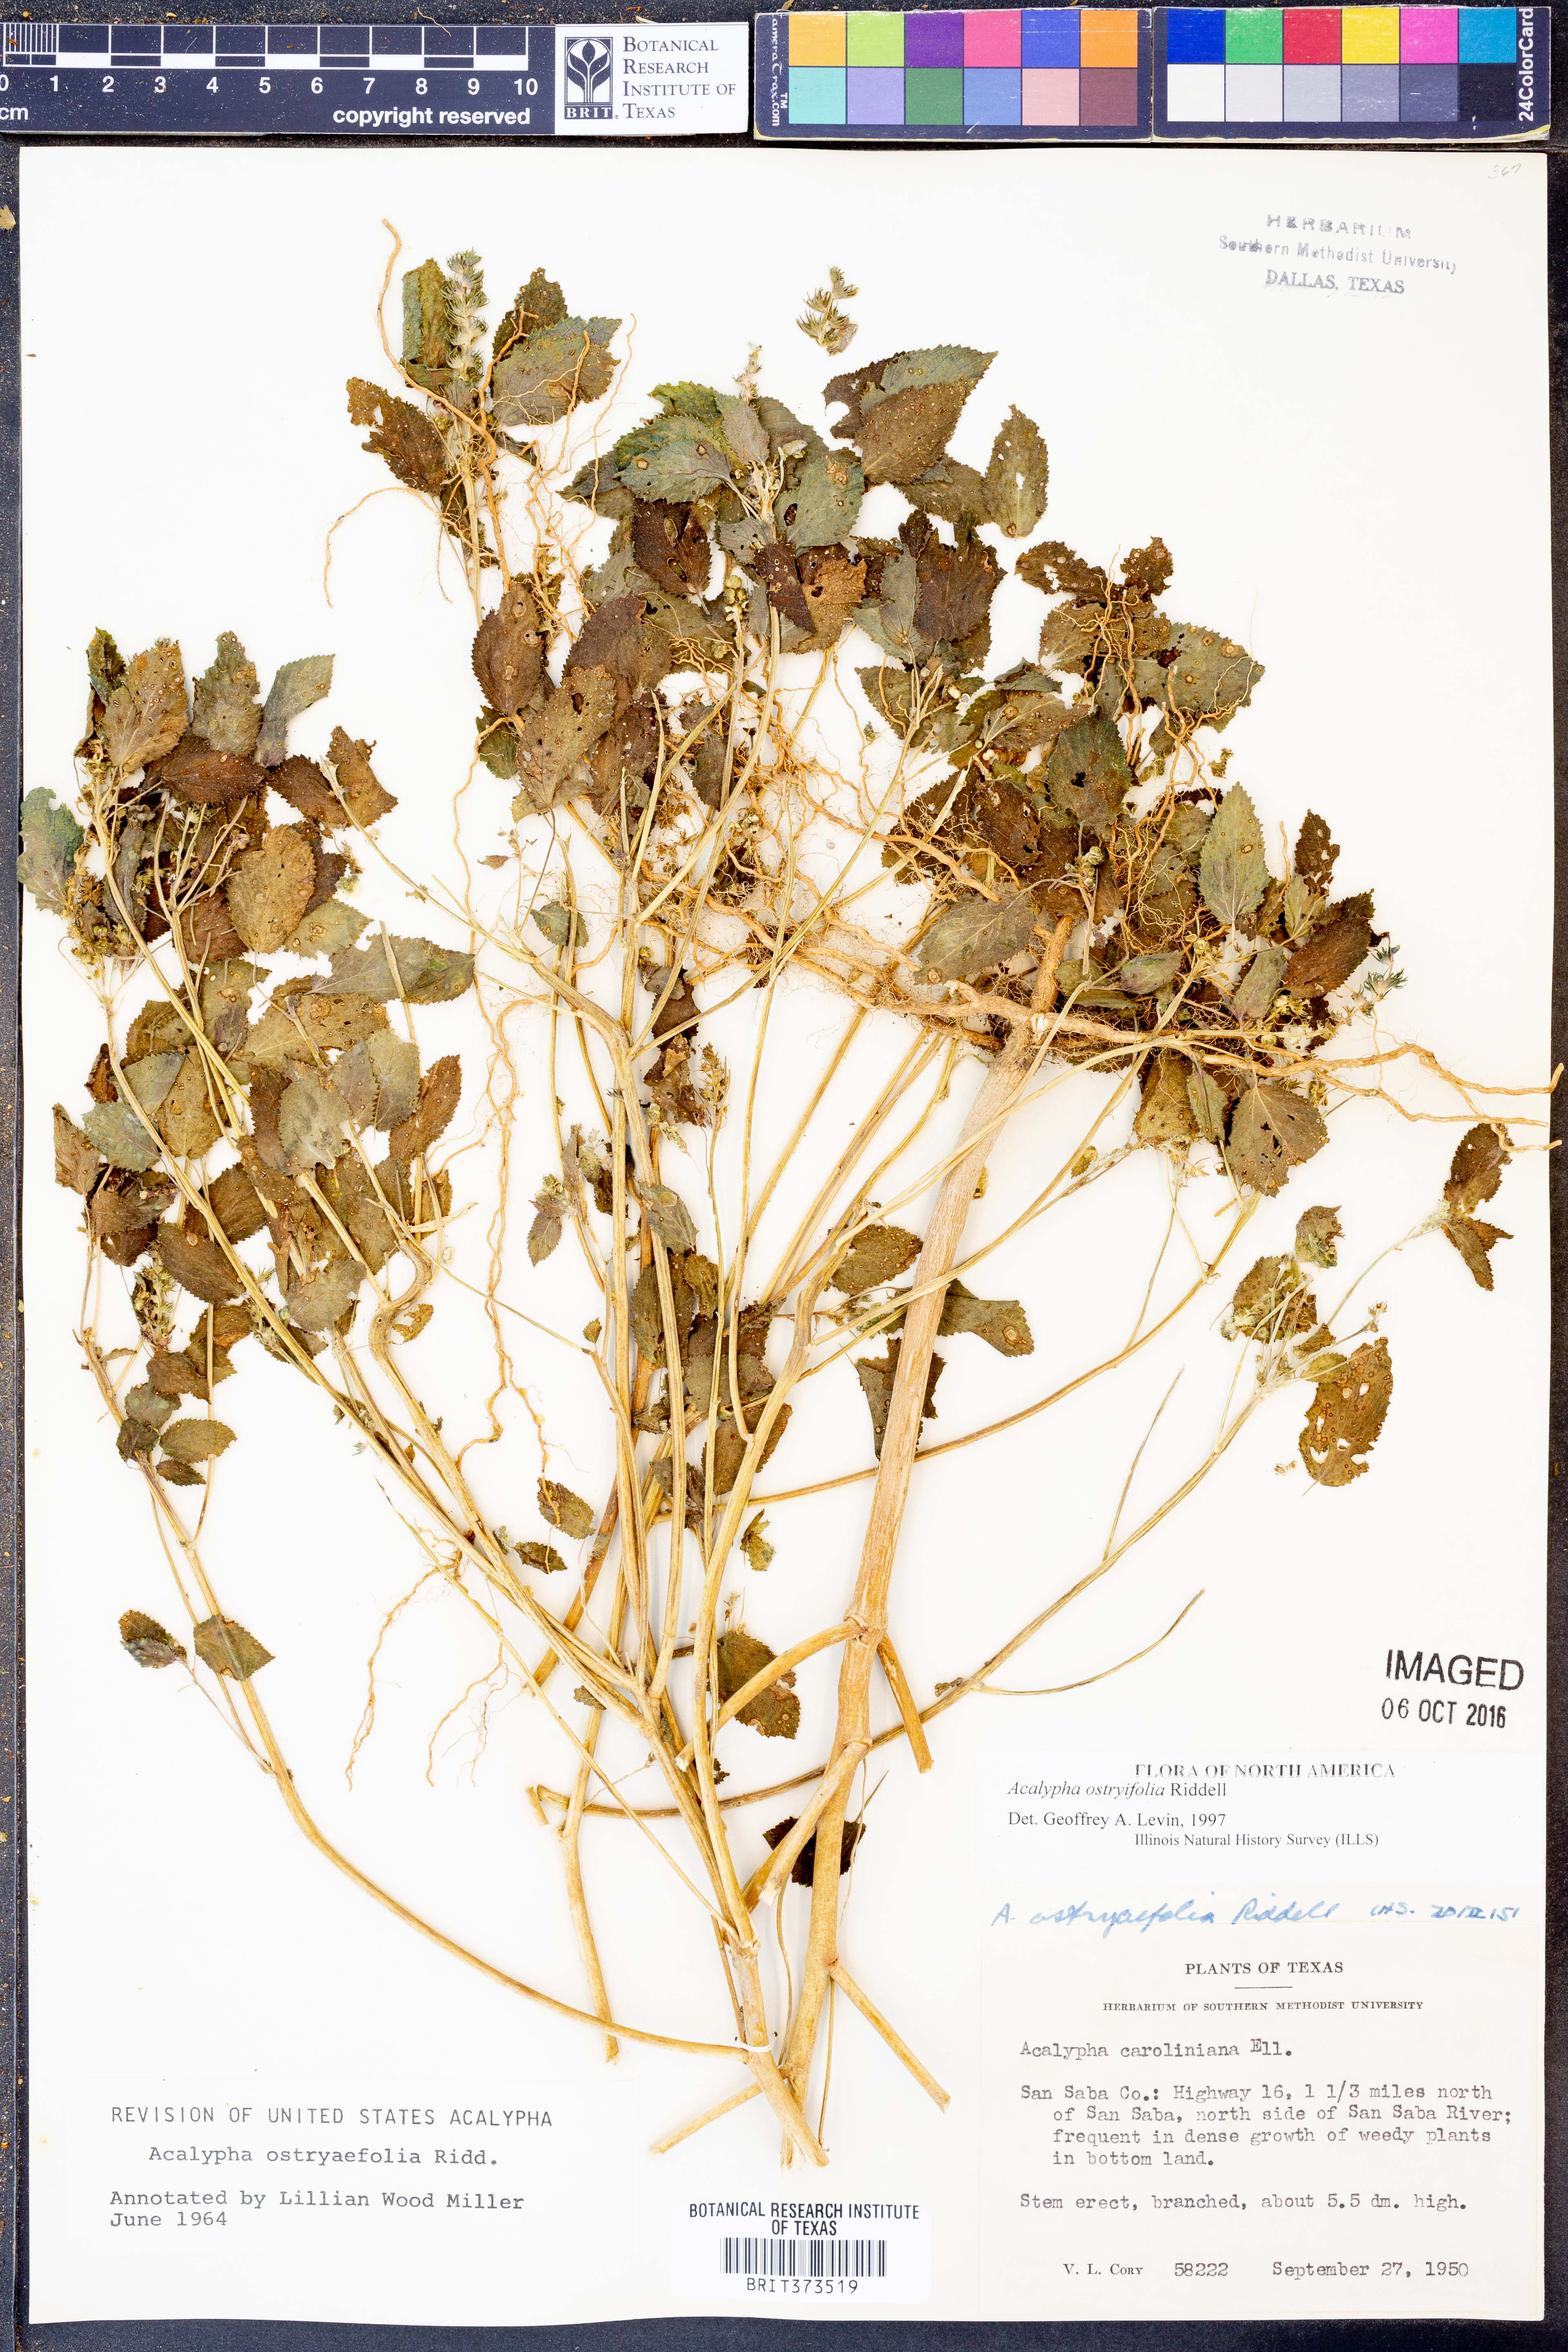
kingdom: Plantae
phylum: Tracheophyta
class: Magnoliopsida
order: Malpighiales
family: Euphorbiaceae
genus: Acalypha
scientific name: Acalypha persimilis
